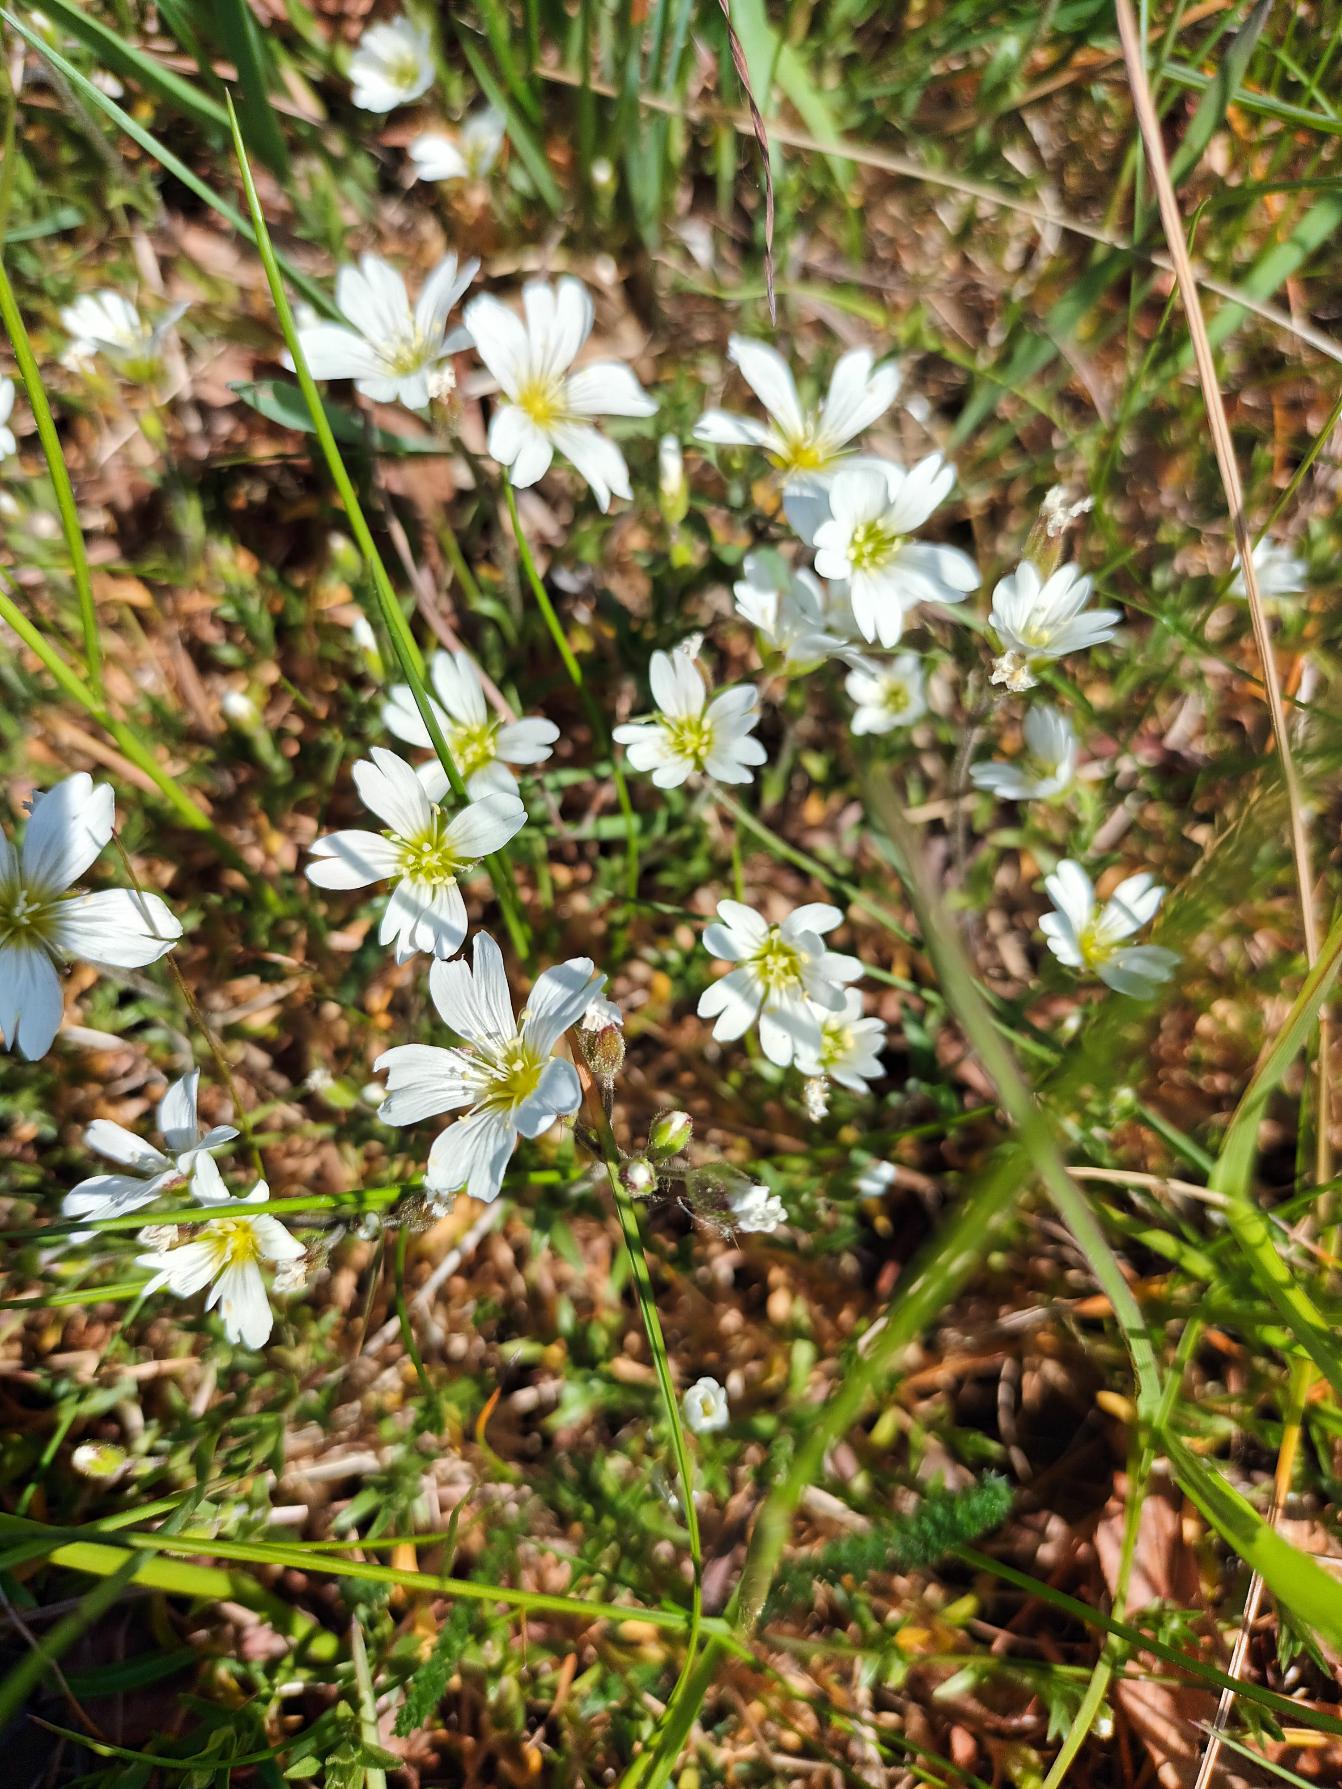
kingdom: Plantae
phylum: Tracheophyta
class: Magnoliopsida
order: Caryophyllales
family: Caryophyllaceae
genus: Cerastium
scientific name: Cerastium arvense
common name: Storblomstret hønsetarm
